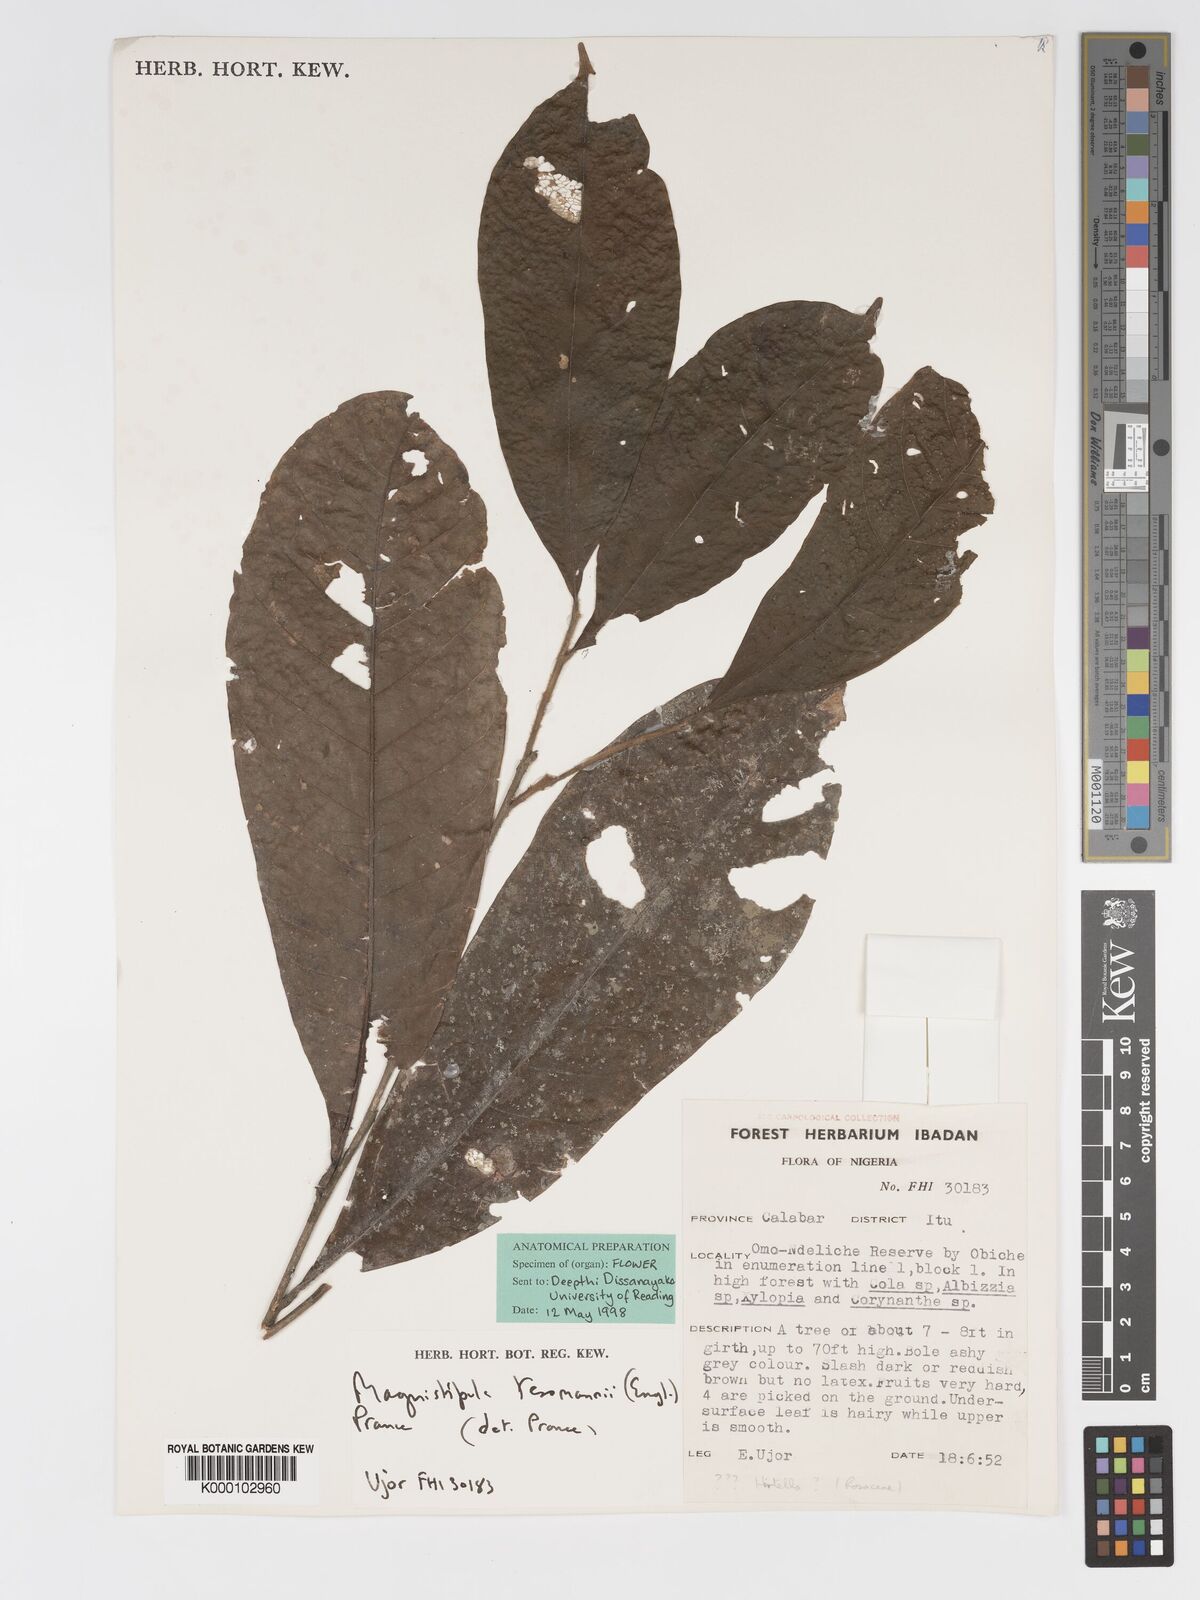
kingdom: Plantae
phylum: Tracheophyta
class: Magnoliopsida
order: Malpighiales
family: Chrysobalanaceae
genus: Magnistipula
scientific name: Magnistipula zenkeri
